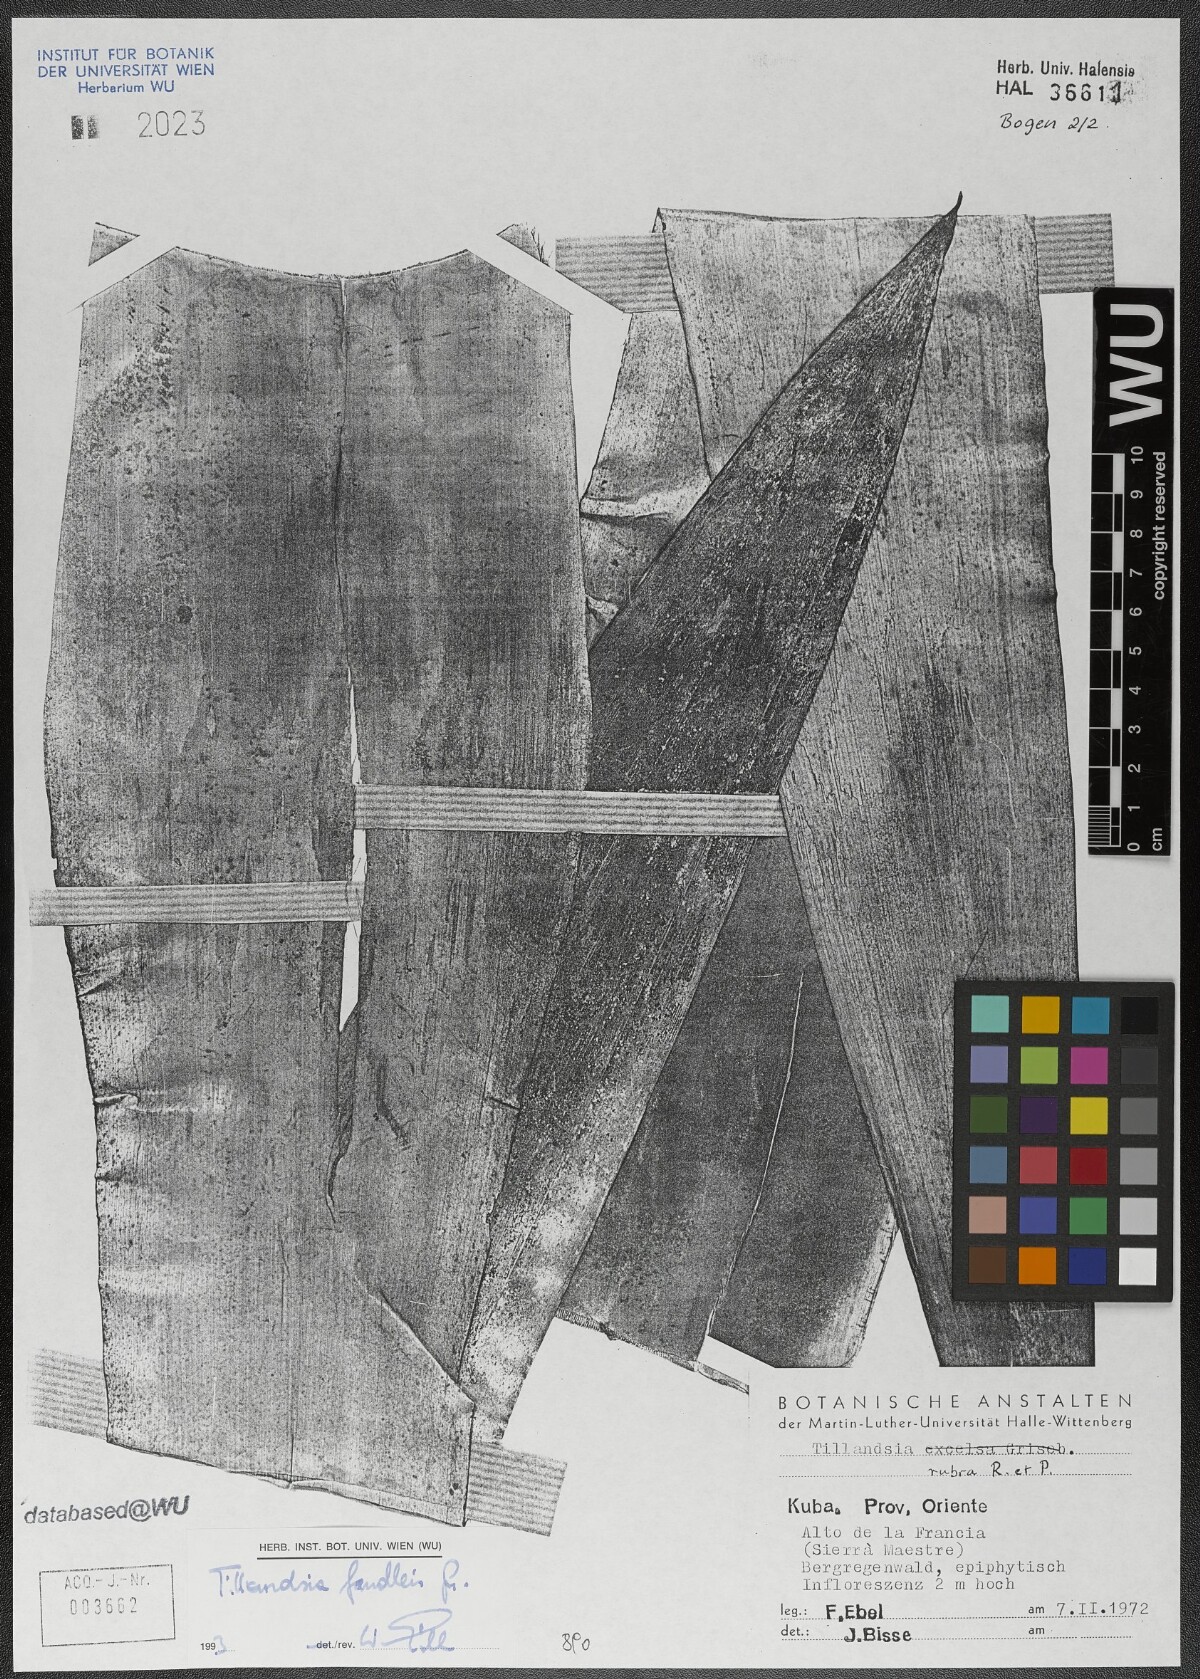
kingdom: Plantae
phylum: Tracheophyta
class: Liliopsida
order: Poales
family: Bromeliaceae
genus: Tillandsia
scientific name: Tillandsia fendleri
